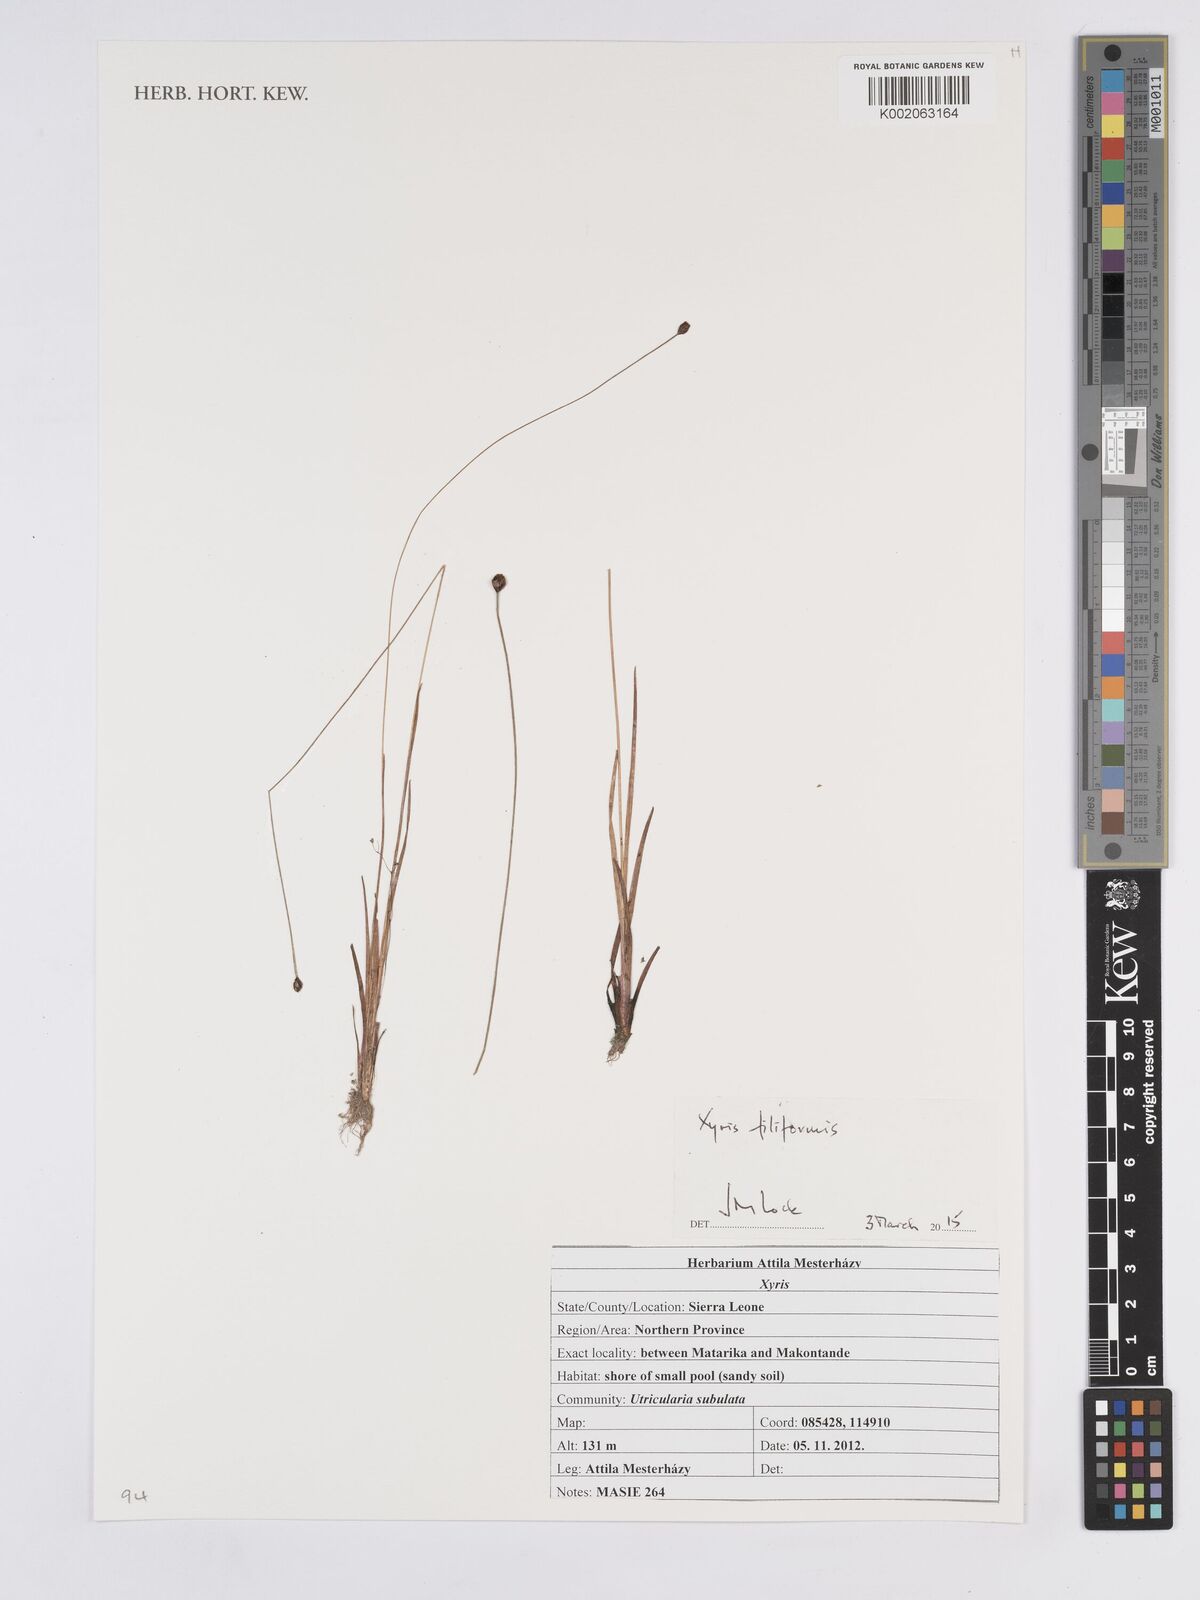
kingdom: Plantae
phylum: Tracheophyta
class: Liliopsida
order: Poales
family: Xyridaceae
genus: Xyris
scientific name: Xyris filiformis
